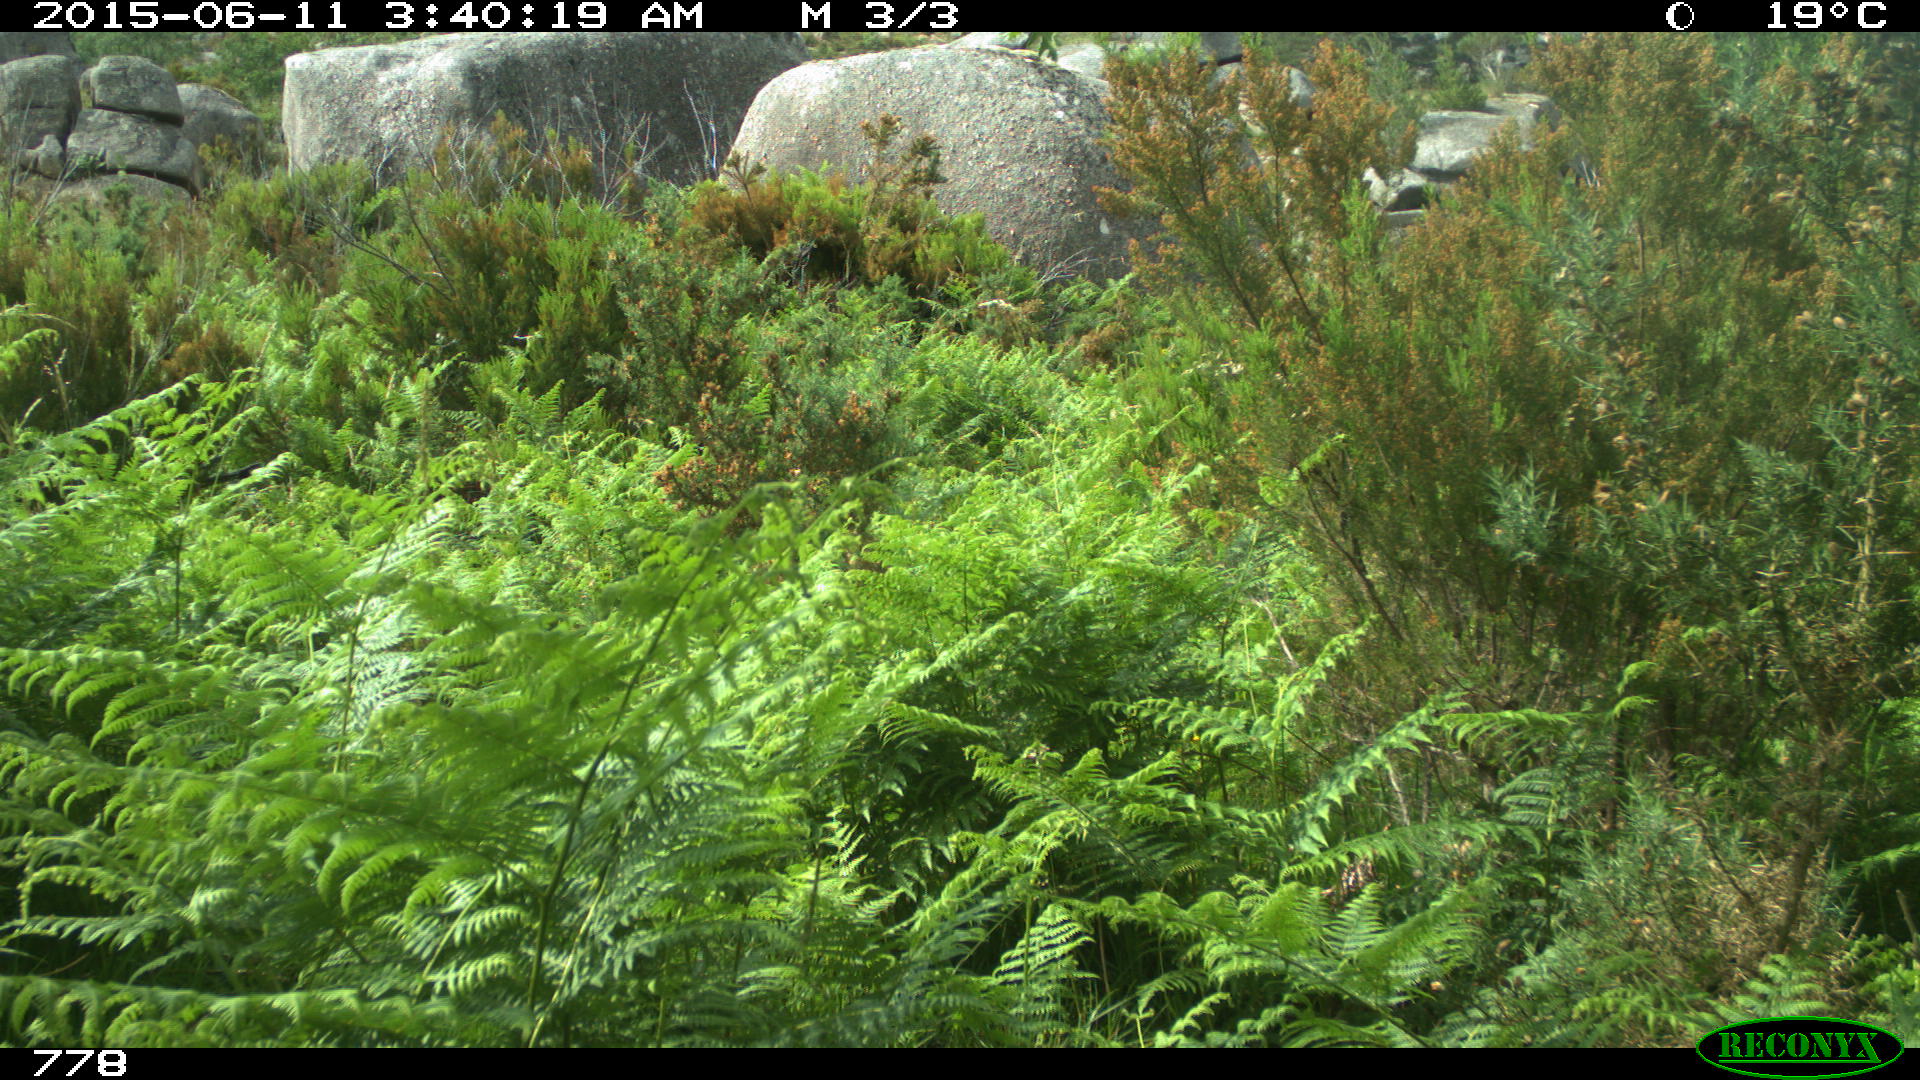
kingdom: Animalia
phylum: Chordata
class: Mammalia
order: Artiodactyla
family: Cervidae
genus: Capreolus
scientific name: Capreolus capreolus
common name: Western roe deer
